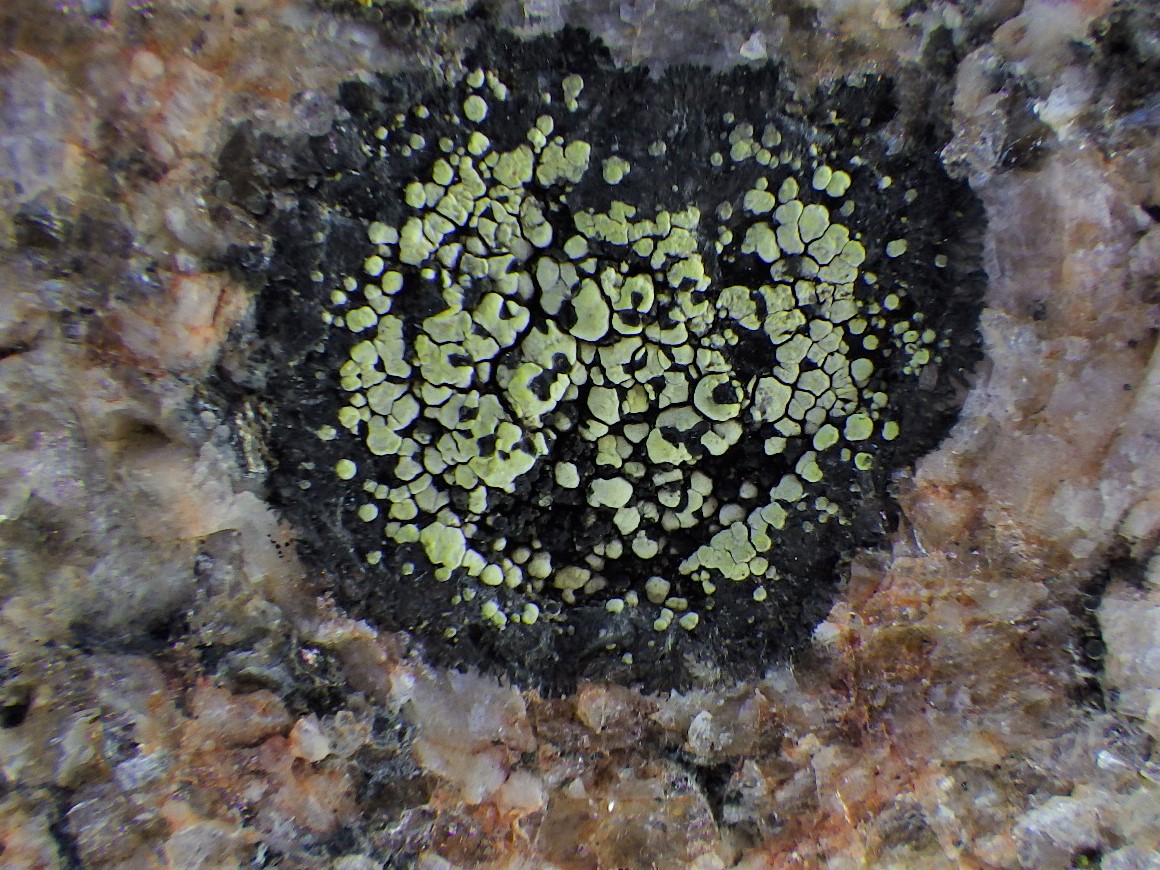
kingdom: Fungi
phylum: Ascomycota
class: Lecanoromycetes
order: Rhizocarpales
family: Rhizocarpaceae
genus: Rhizocarpon
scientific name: Rhizocarpon lecanorinum
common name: krave-landkortlav
